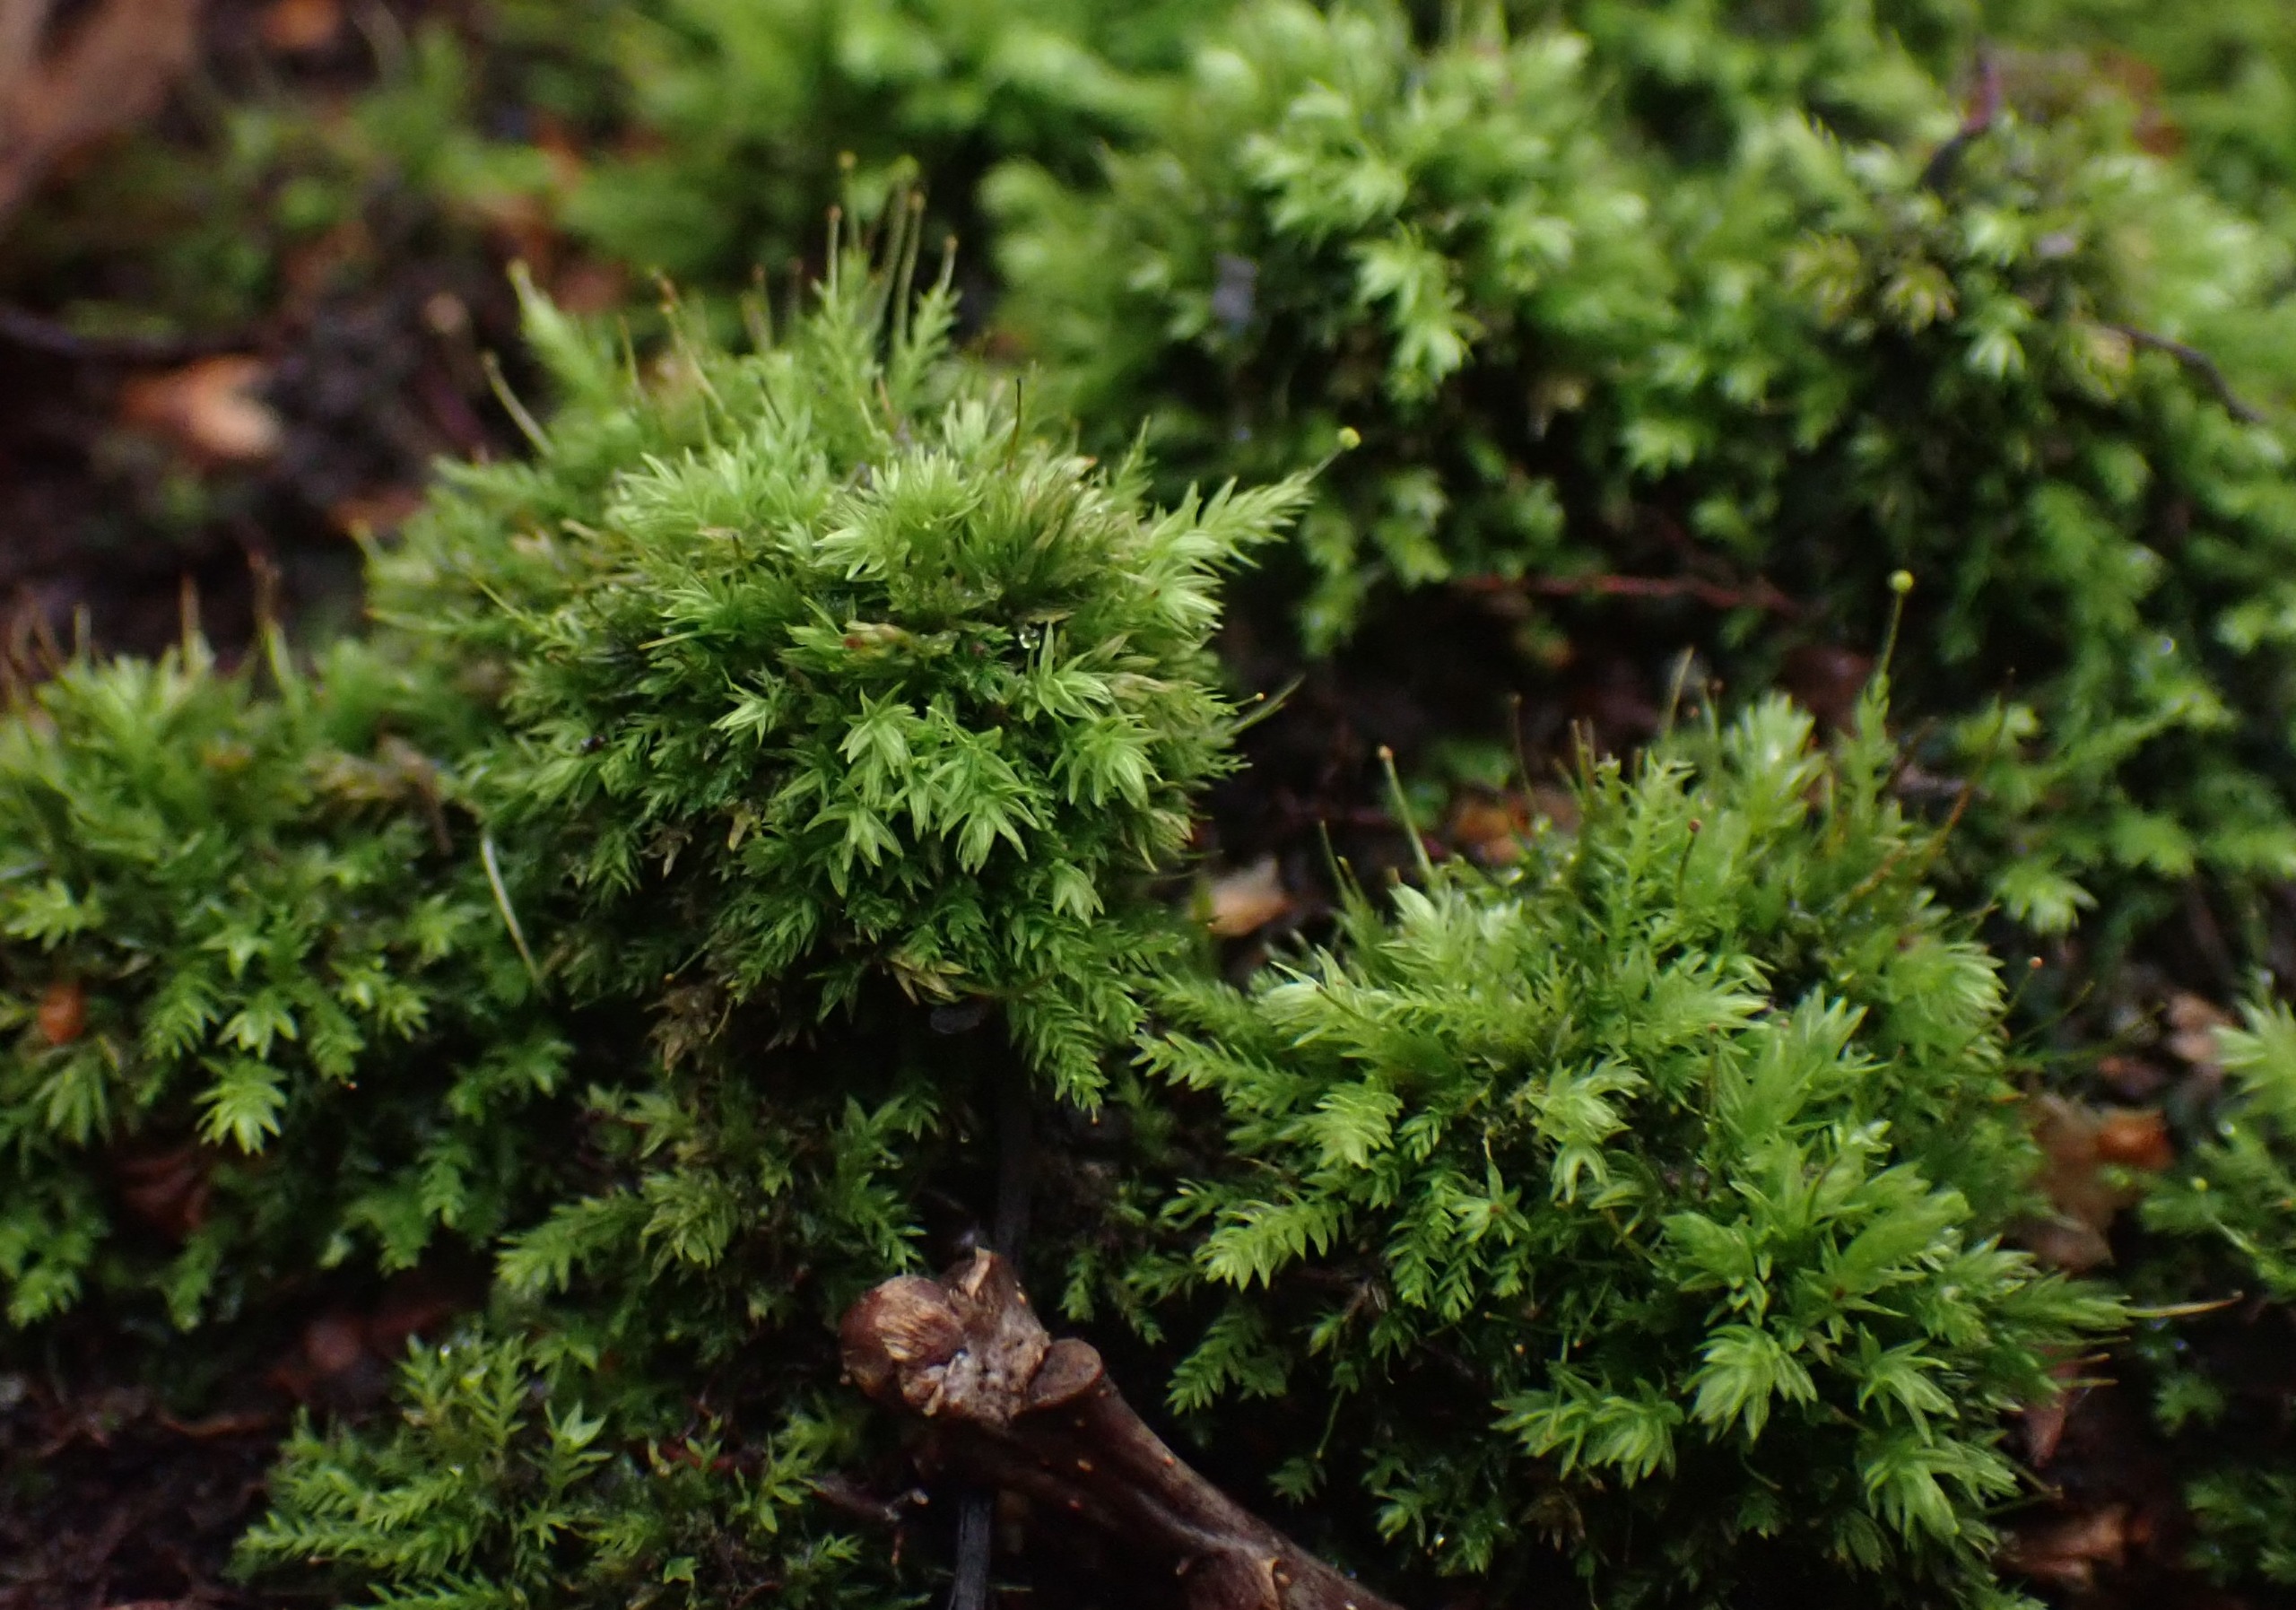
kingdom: Plantae
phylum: Bryophyta
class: Bryopsida
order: Aulacomniales
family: Aulacomniaceae
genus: Aulacomnium
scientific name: Aulacomnium androgynum
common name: Kugle-filtmos
